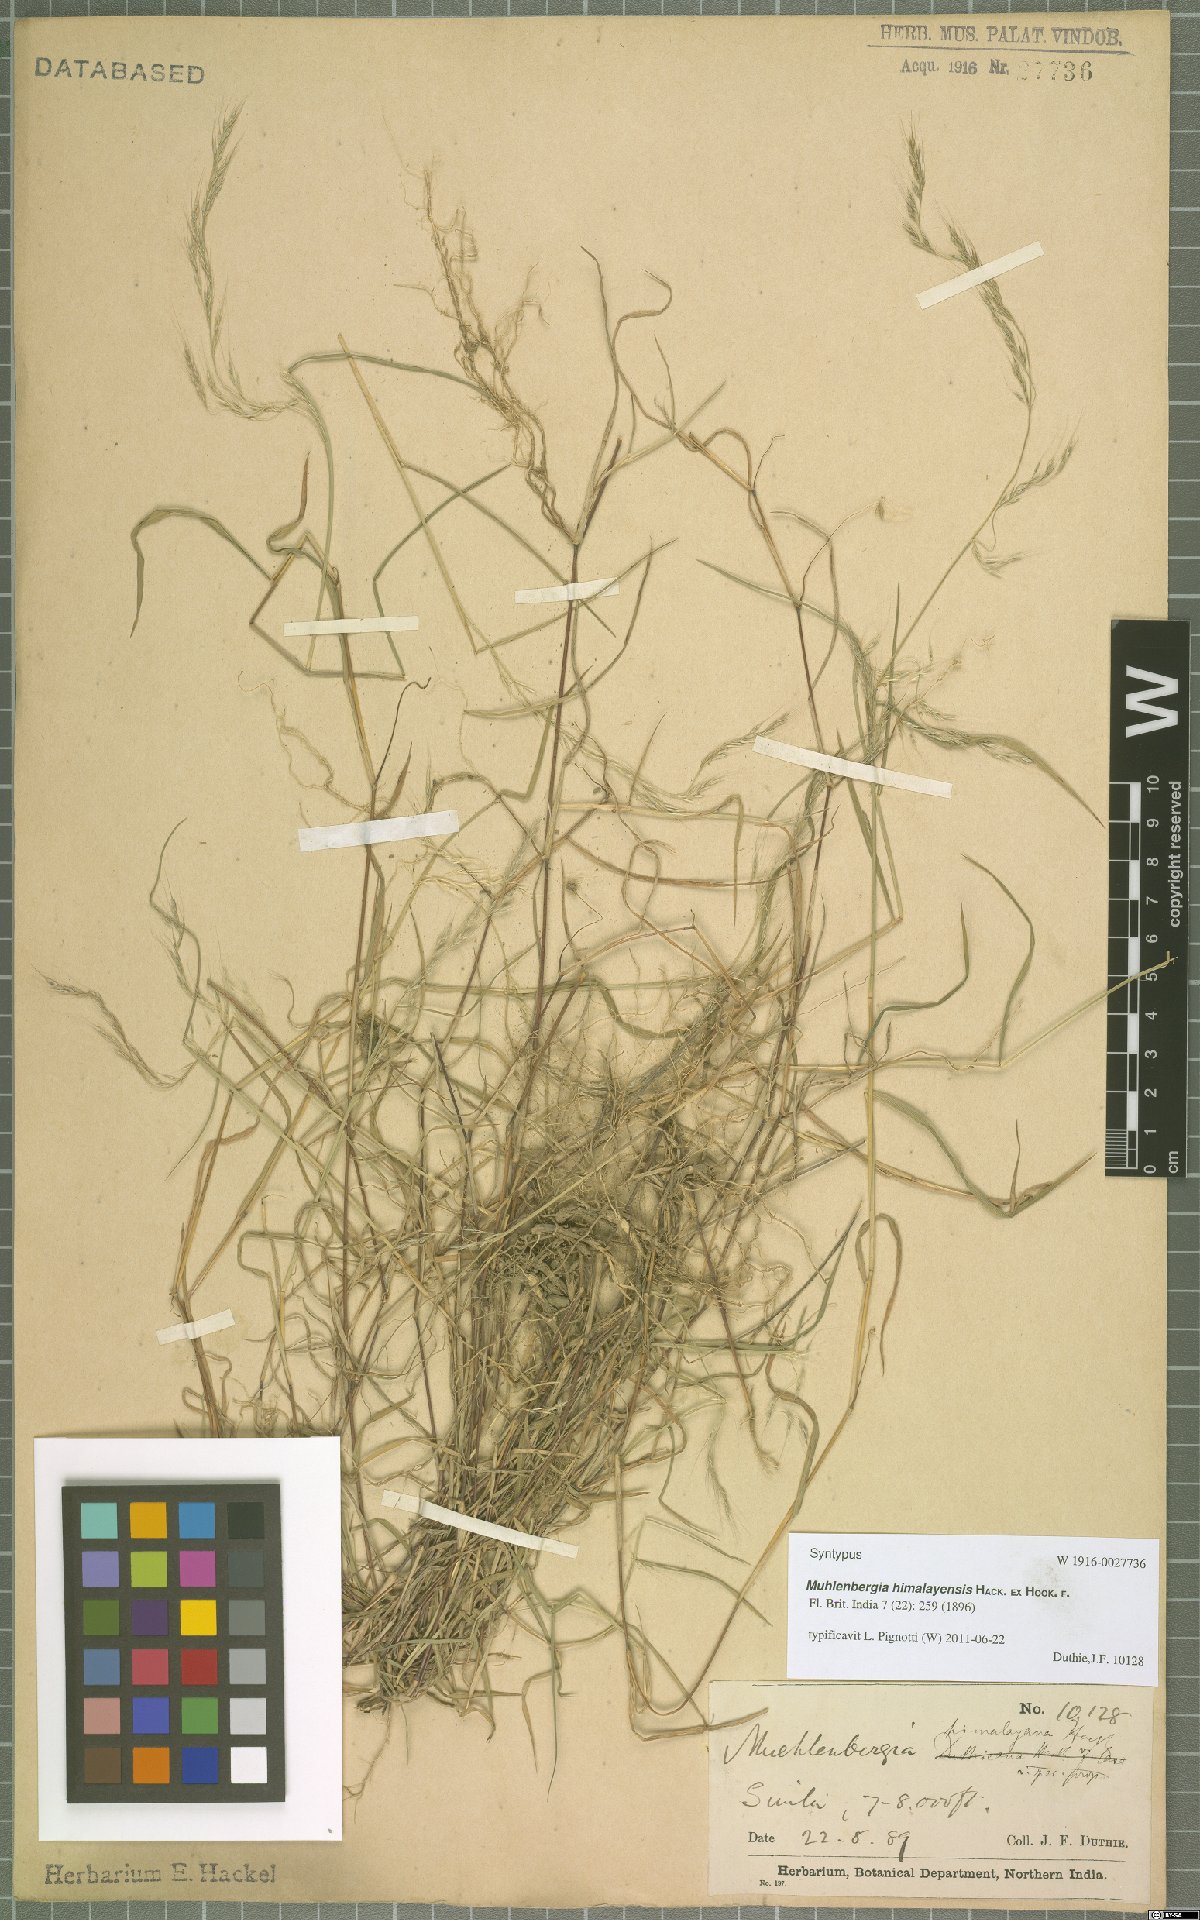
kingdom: Plantae
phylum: Tracheophyta
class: Liliopsida
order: Poales
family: Poaceae
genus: Muhlenbergia
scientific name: Muhlenbergia himalayensis
